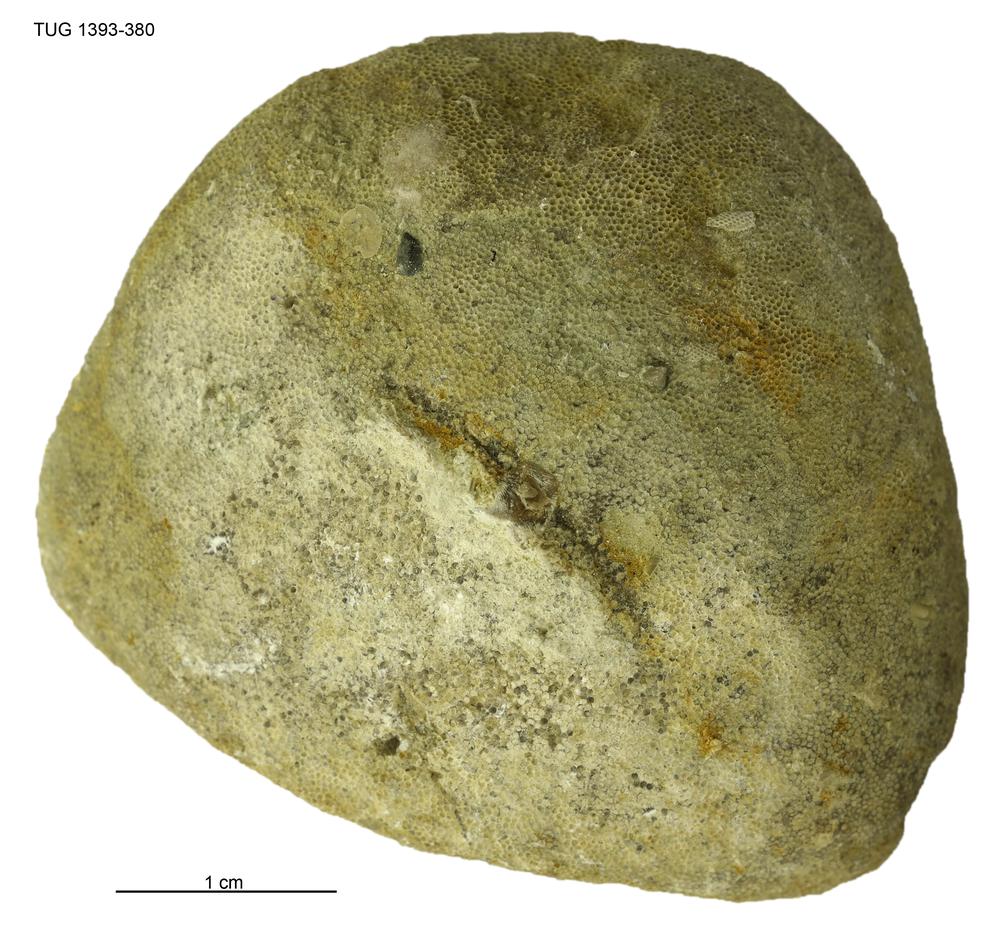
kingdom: Animalia
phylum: Bryozoa
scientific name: Bryozoa
